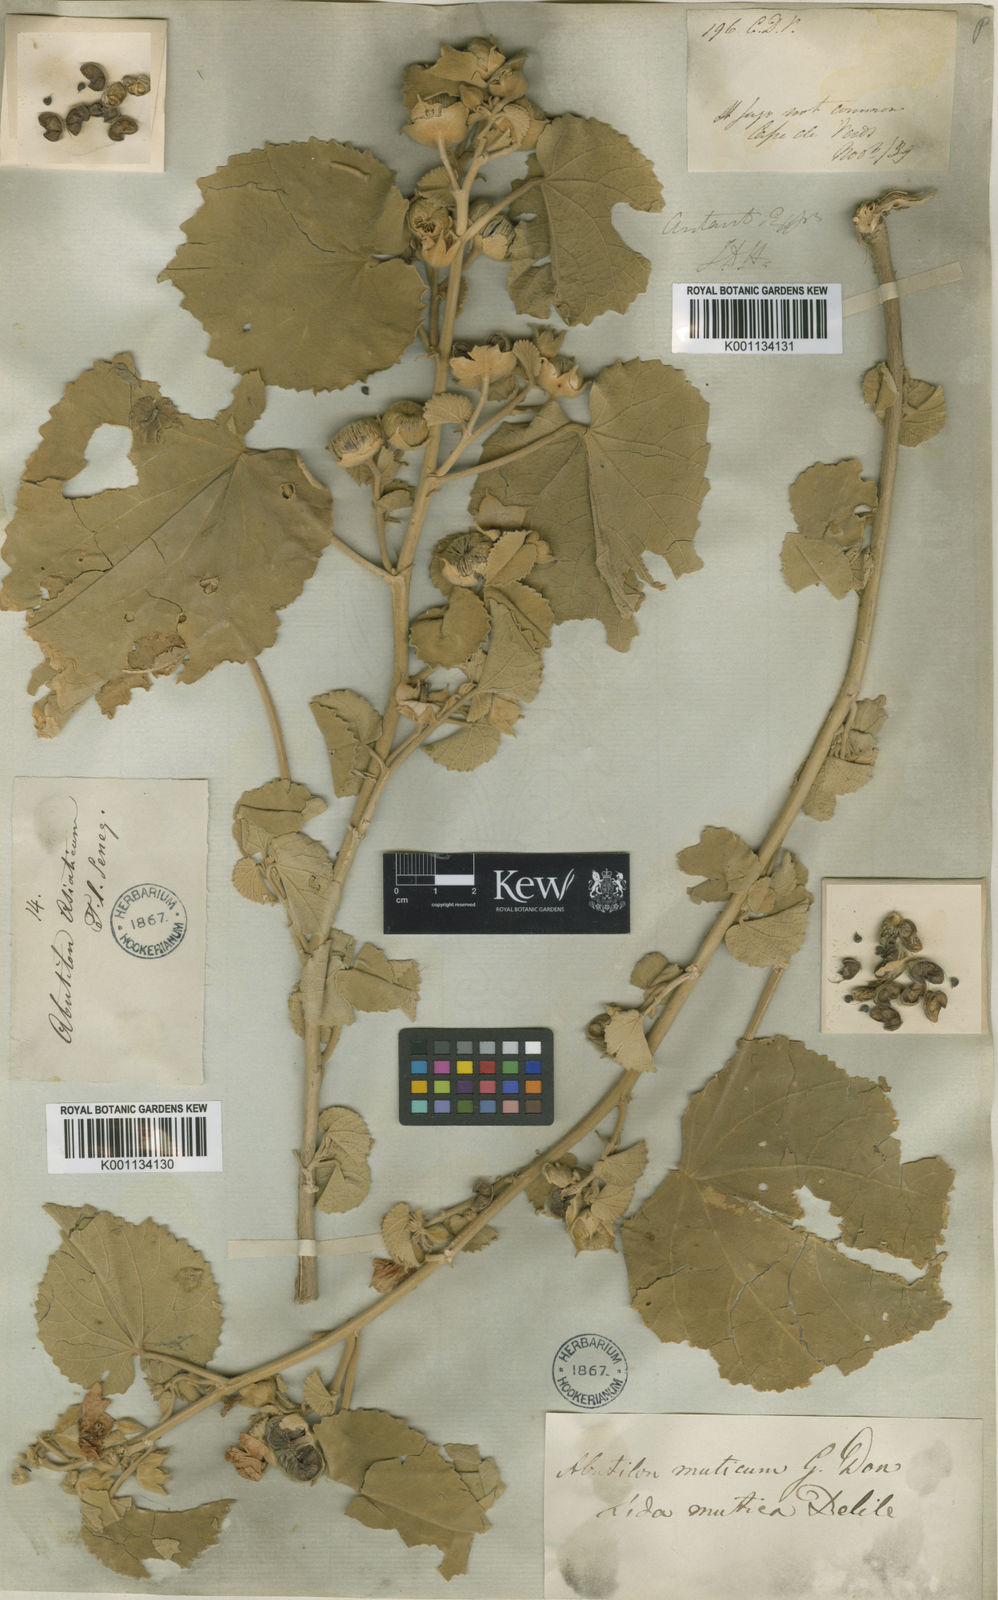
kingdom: Plantae
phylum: Tracheophyta
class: Magnoliopsida
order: Malvales
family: Malvaceae
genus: Abutilon
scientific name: Abutilon pannosum
